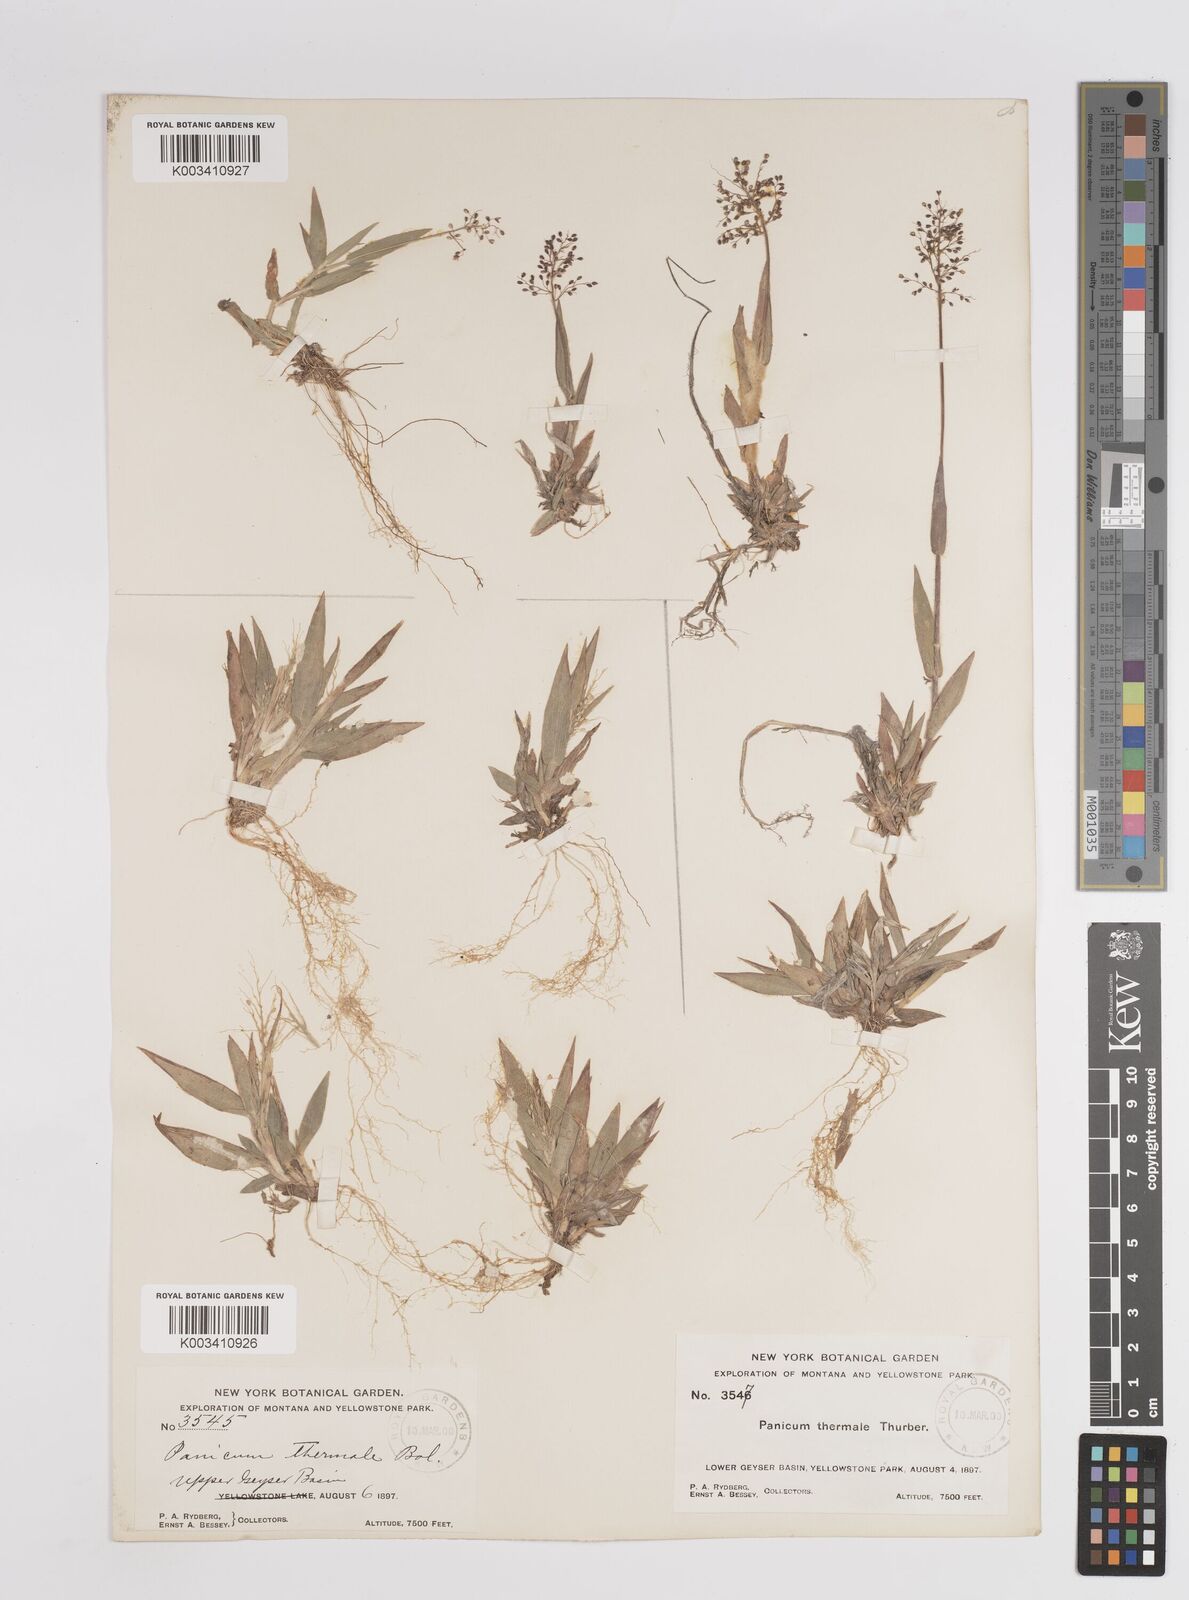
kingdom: Plantae
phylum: Tracheophyta
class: Liliopsida
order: Poales
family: Poaceae
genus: Dichanthelium
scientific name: Dichanthelium thermale
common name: Geyser panicgrass
